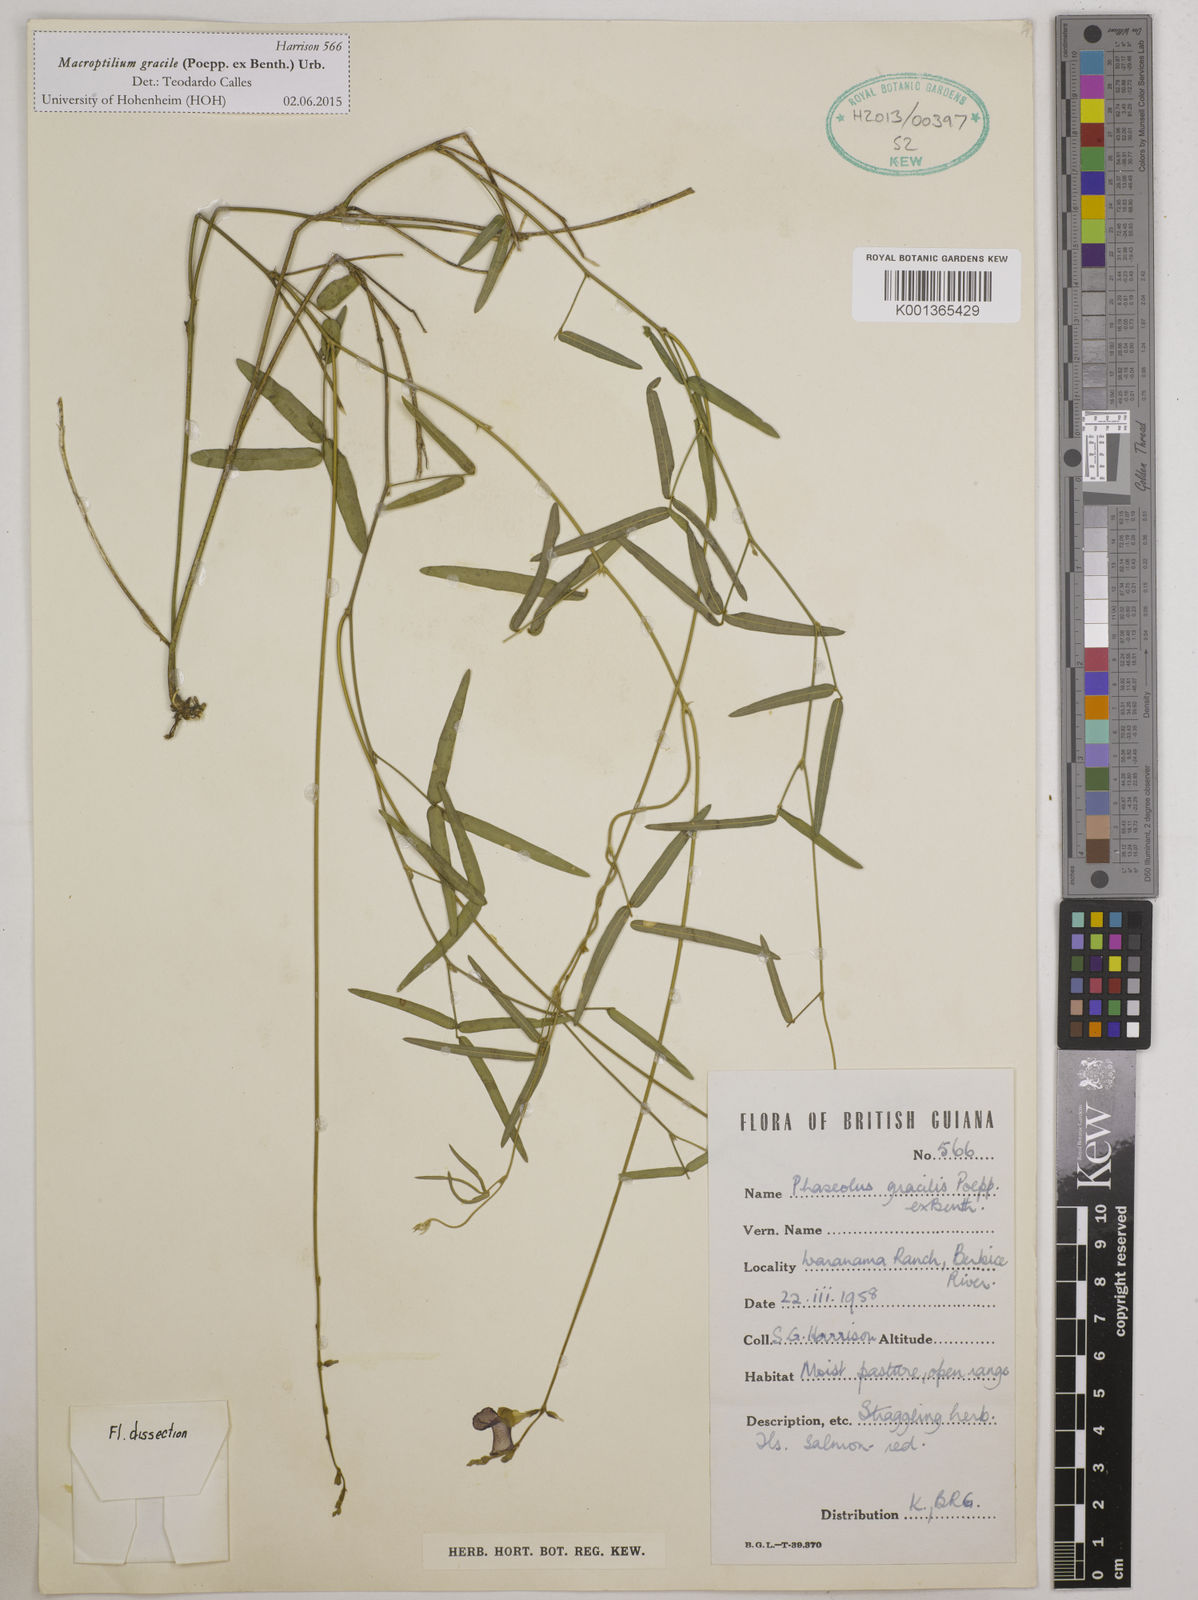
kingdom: Plantae
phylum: Tracheophyta
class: Magnoliopsida
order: Fabales
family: Fabaceae
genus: Macroptilium
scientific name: Macroptilium gracile
